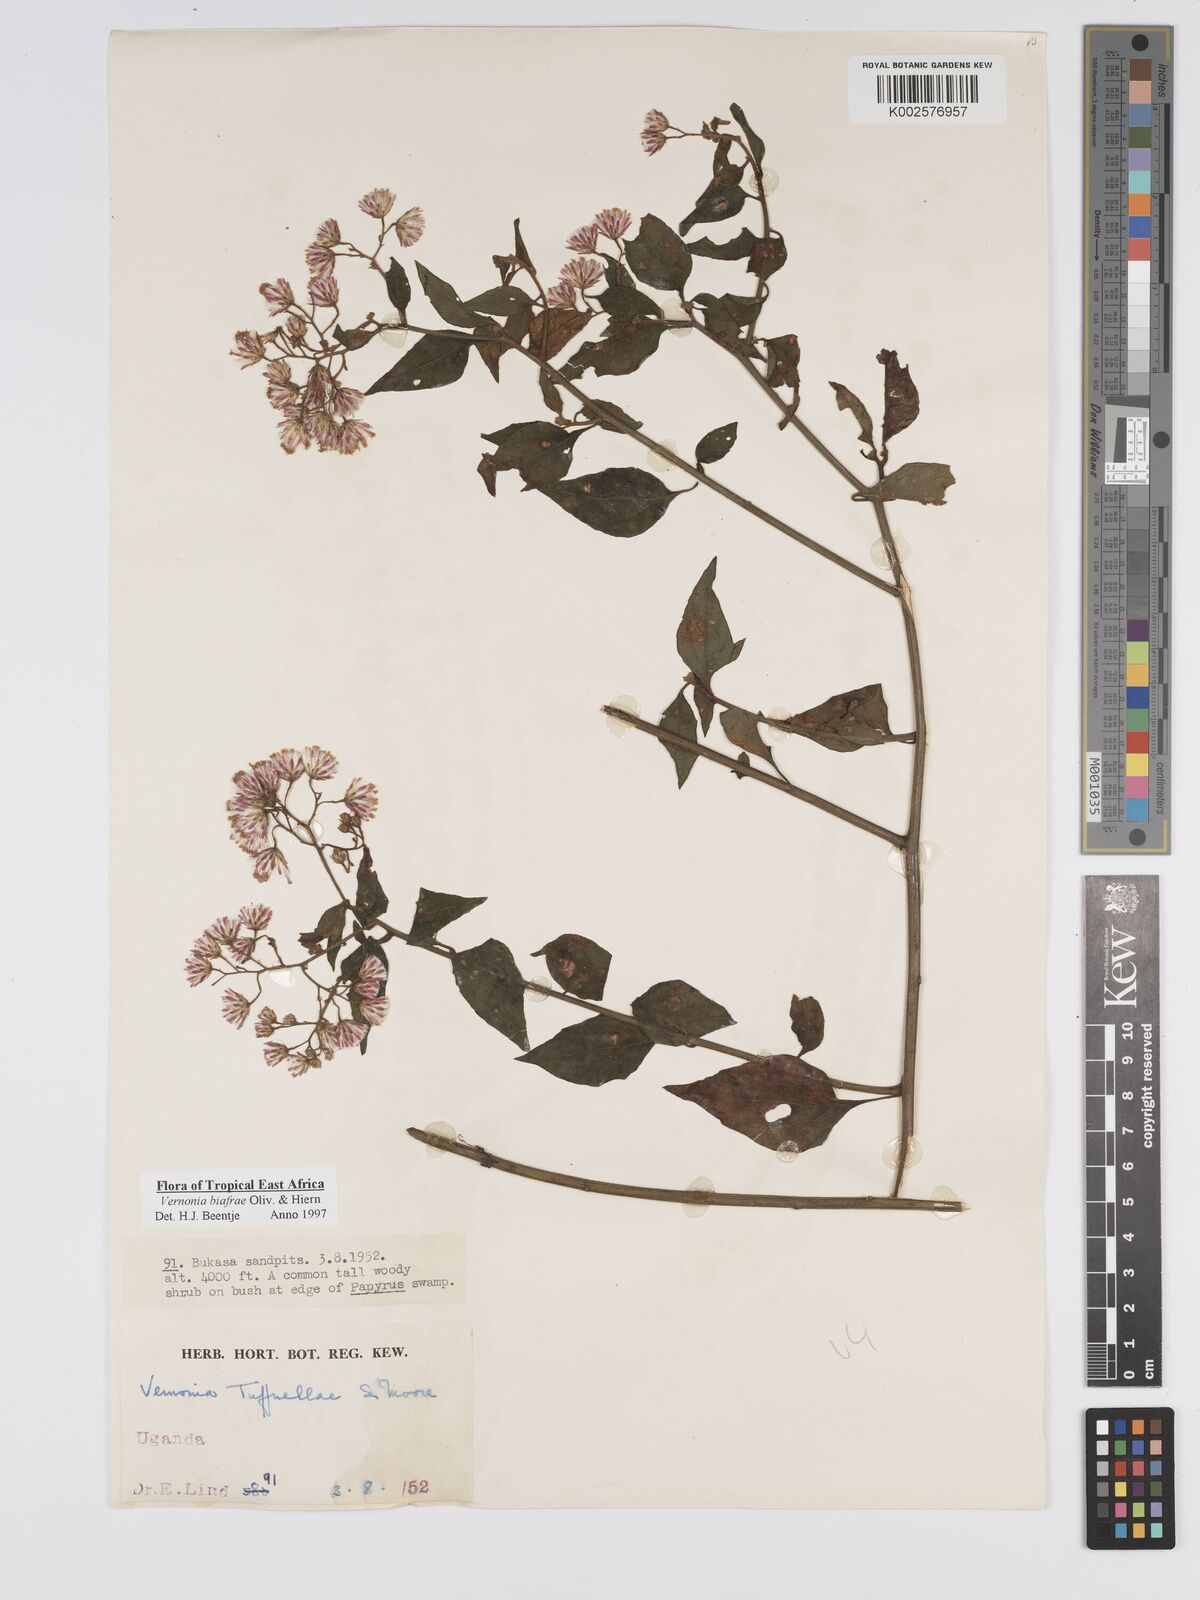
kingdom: Plantae
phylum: Tracheophyta
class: Magnoliopsida
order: Asterales
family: Asteraceae
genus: Distephanus
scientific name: Distephanus biafrae
